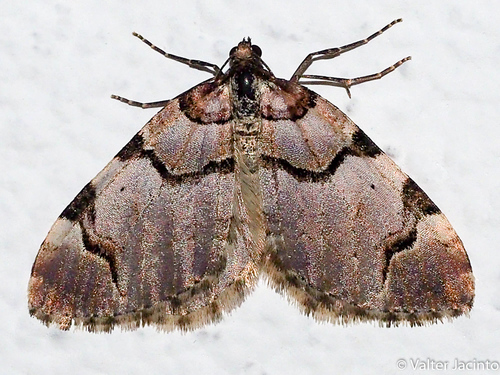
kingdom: Animalia
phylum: Arthropoda
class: Insecta
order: Lepidoptera
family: Geometridae
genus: Anticlea
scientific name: Anticlea derivata
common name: Streamer
